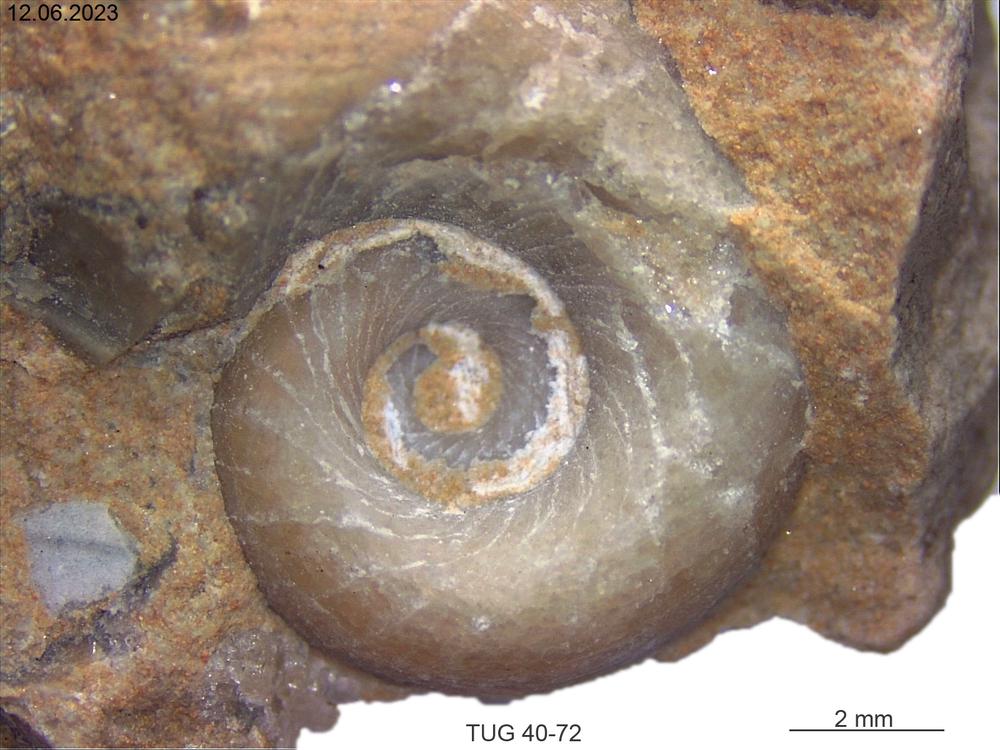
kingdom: Animalia
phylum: Mollusca
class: Gastropoda
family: Bucaniidae
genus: Bucania
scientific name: Bucania Bellerophon radiata
